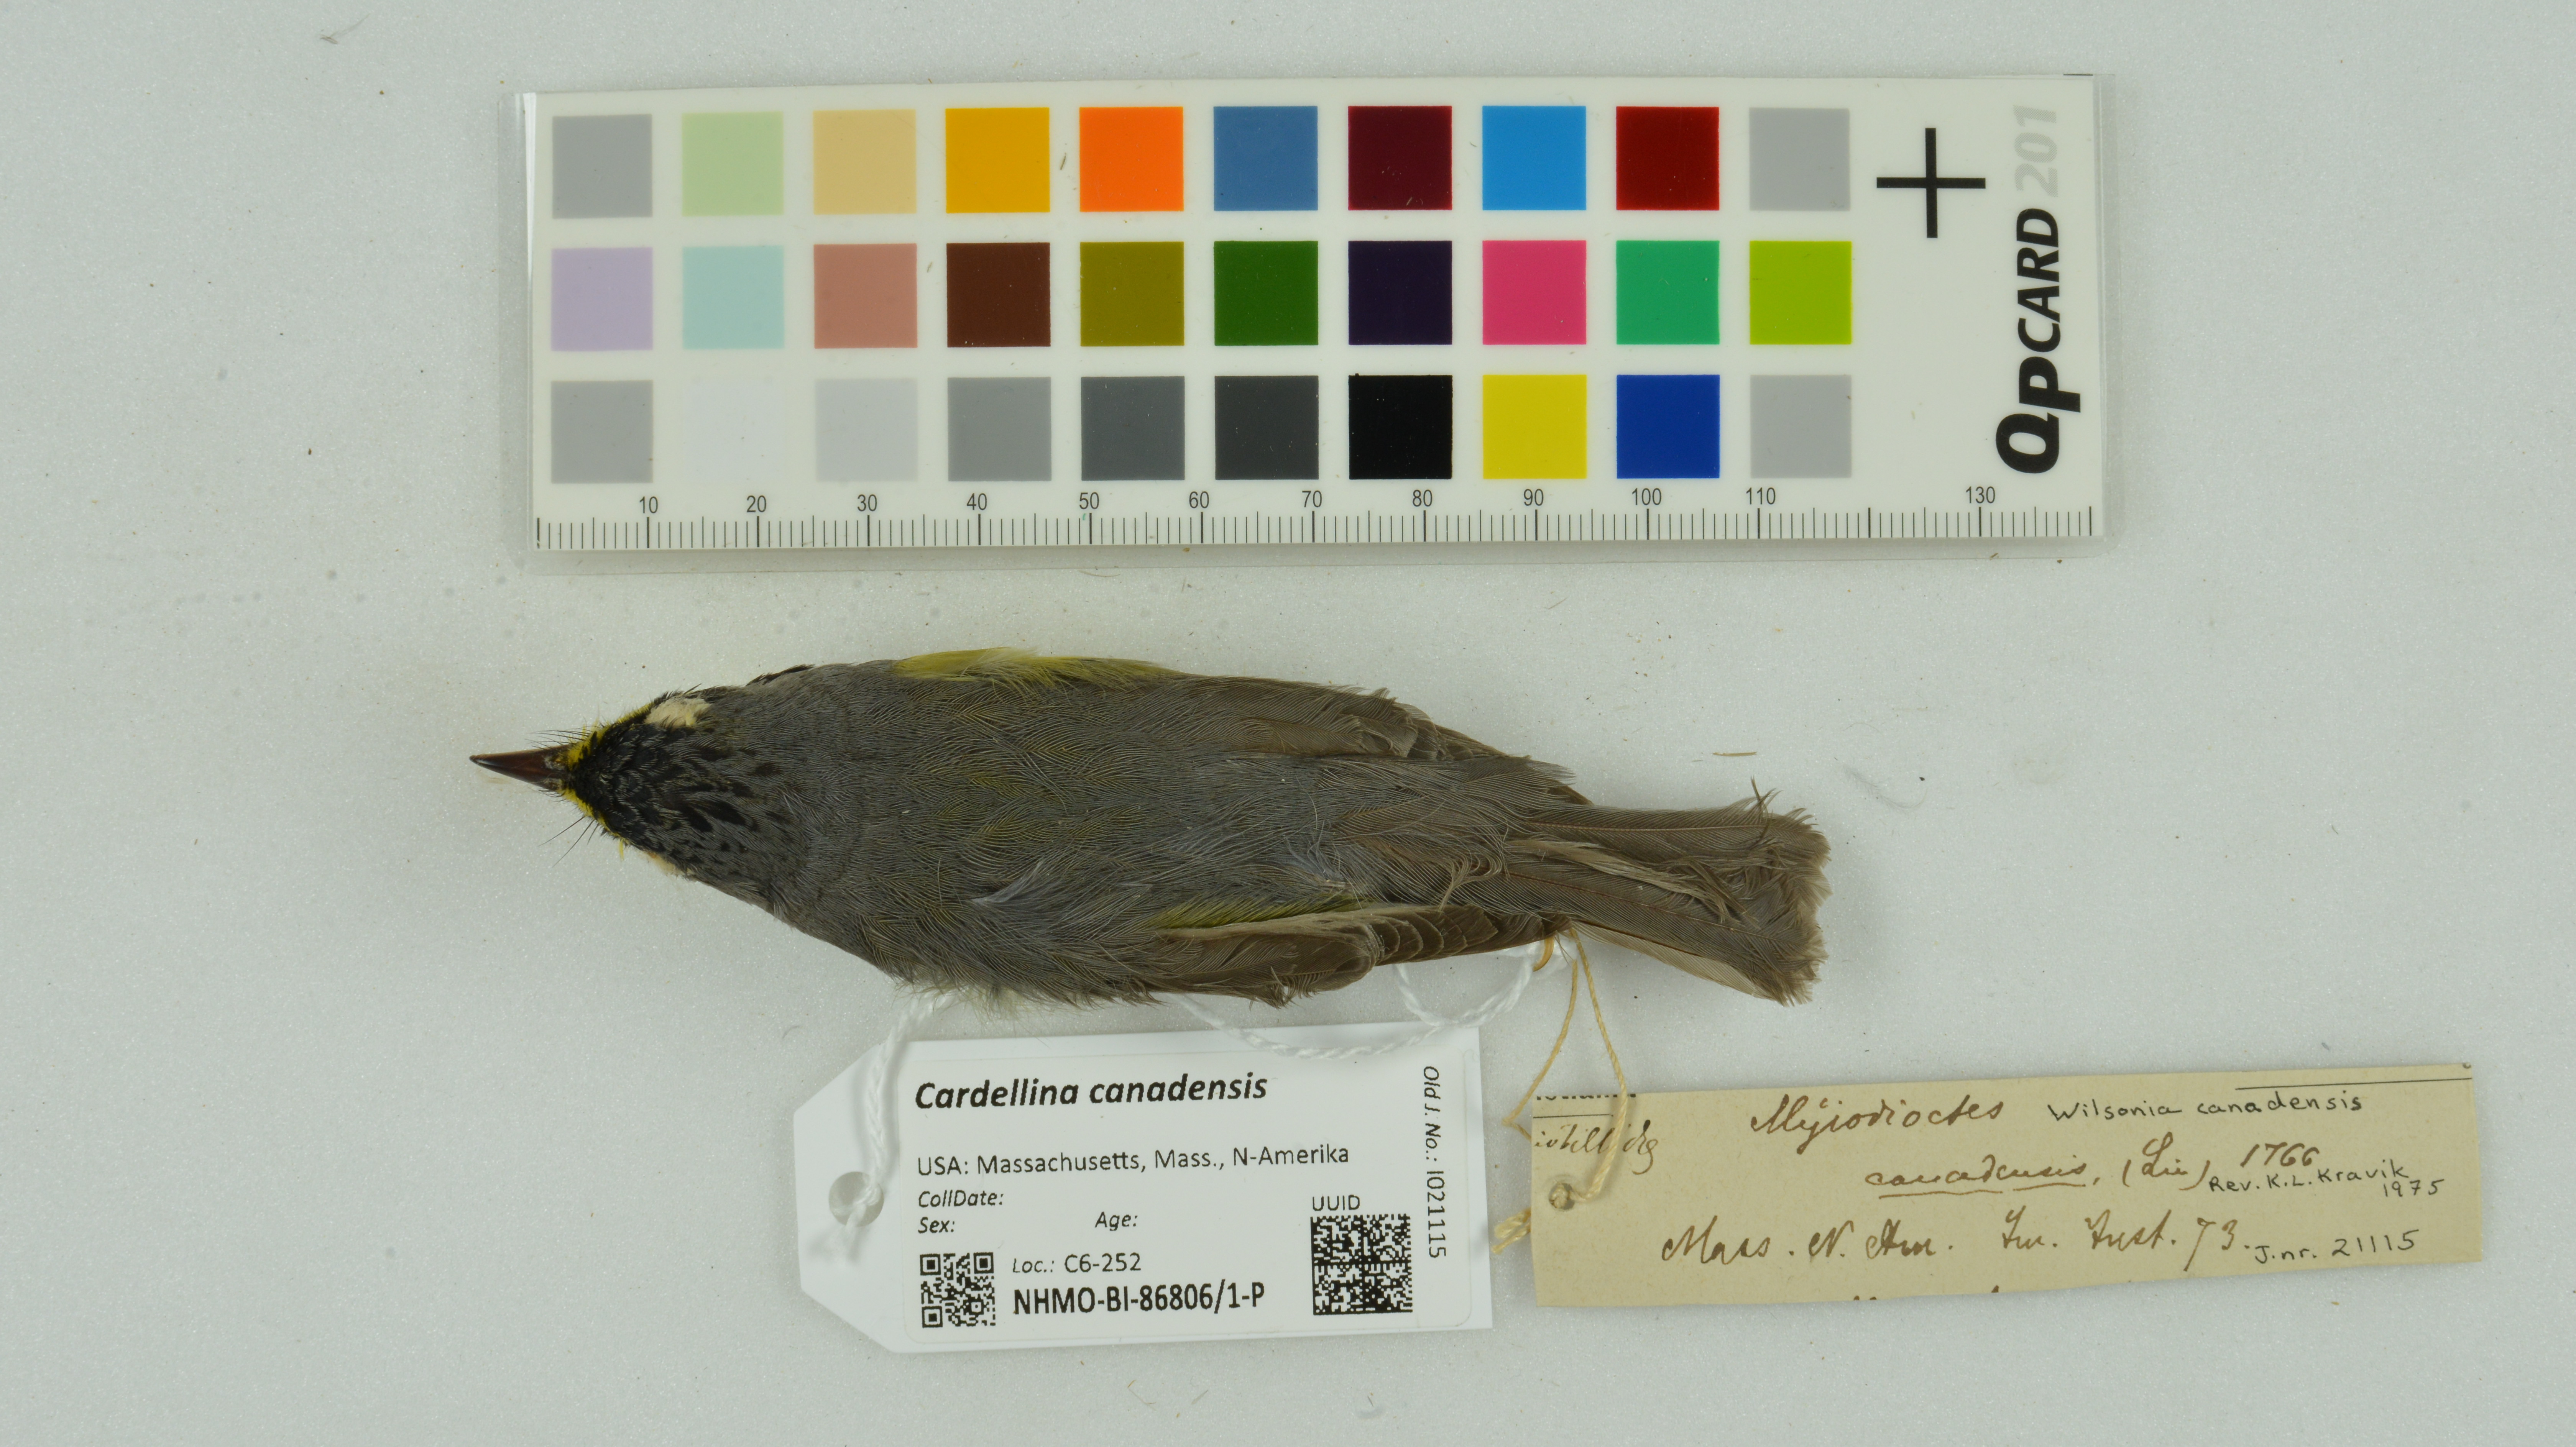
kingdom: Animalia
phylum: Chordata
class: Aves
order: Passeriformes
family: Parulidae
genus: Cardellina
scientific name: Cardellina canadensis
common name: Canada warbler
